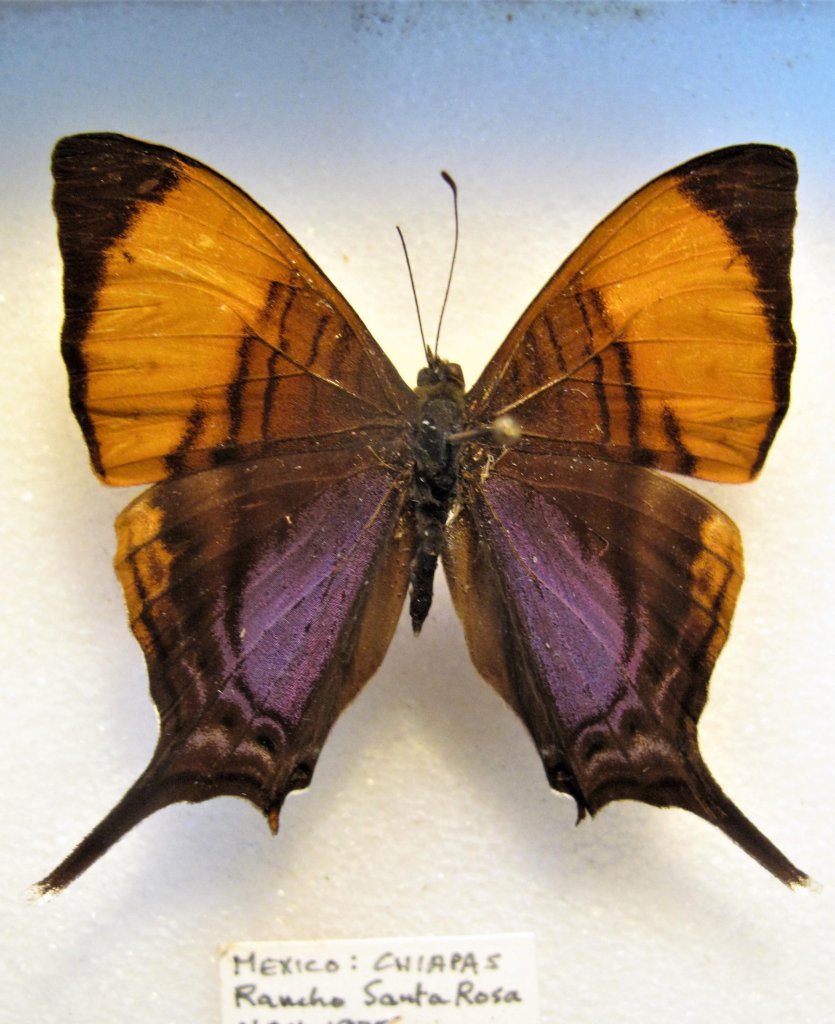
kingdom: Animalia
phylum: Arthropoda
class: Insecta
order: Lepidoptera
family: Nymphalidae
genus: Marpesia
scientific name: Marpesia corita
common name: Orange-banded Daggerwing
